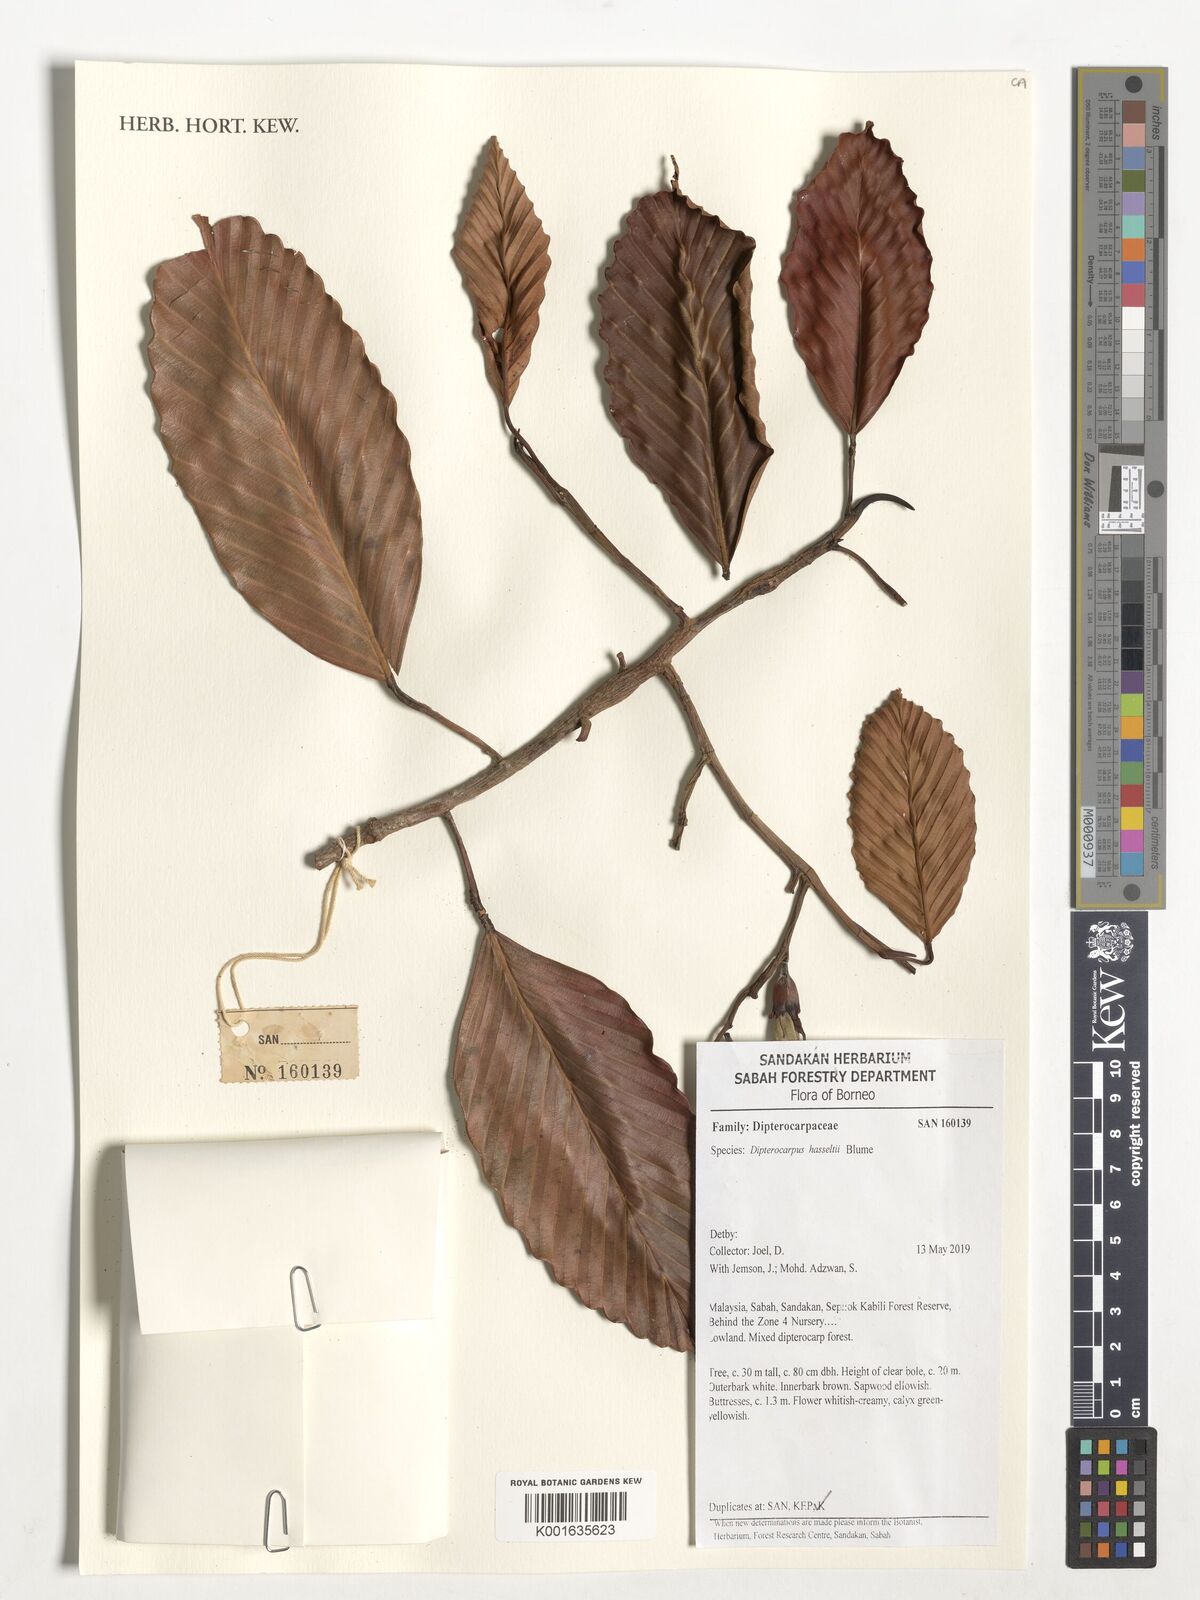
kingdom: Plantae
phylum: Tracheophyta
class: Magnoliopsida
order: Malvales
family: Dipterocarpaceae
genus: Dipterocarpus
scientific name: Dipterocarpus hasseltii
